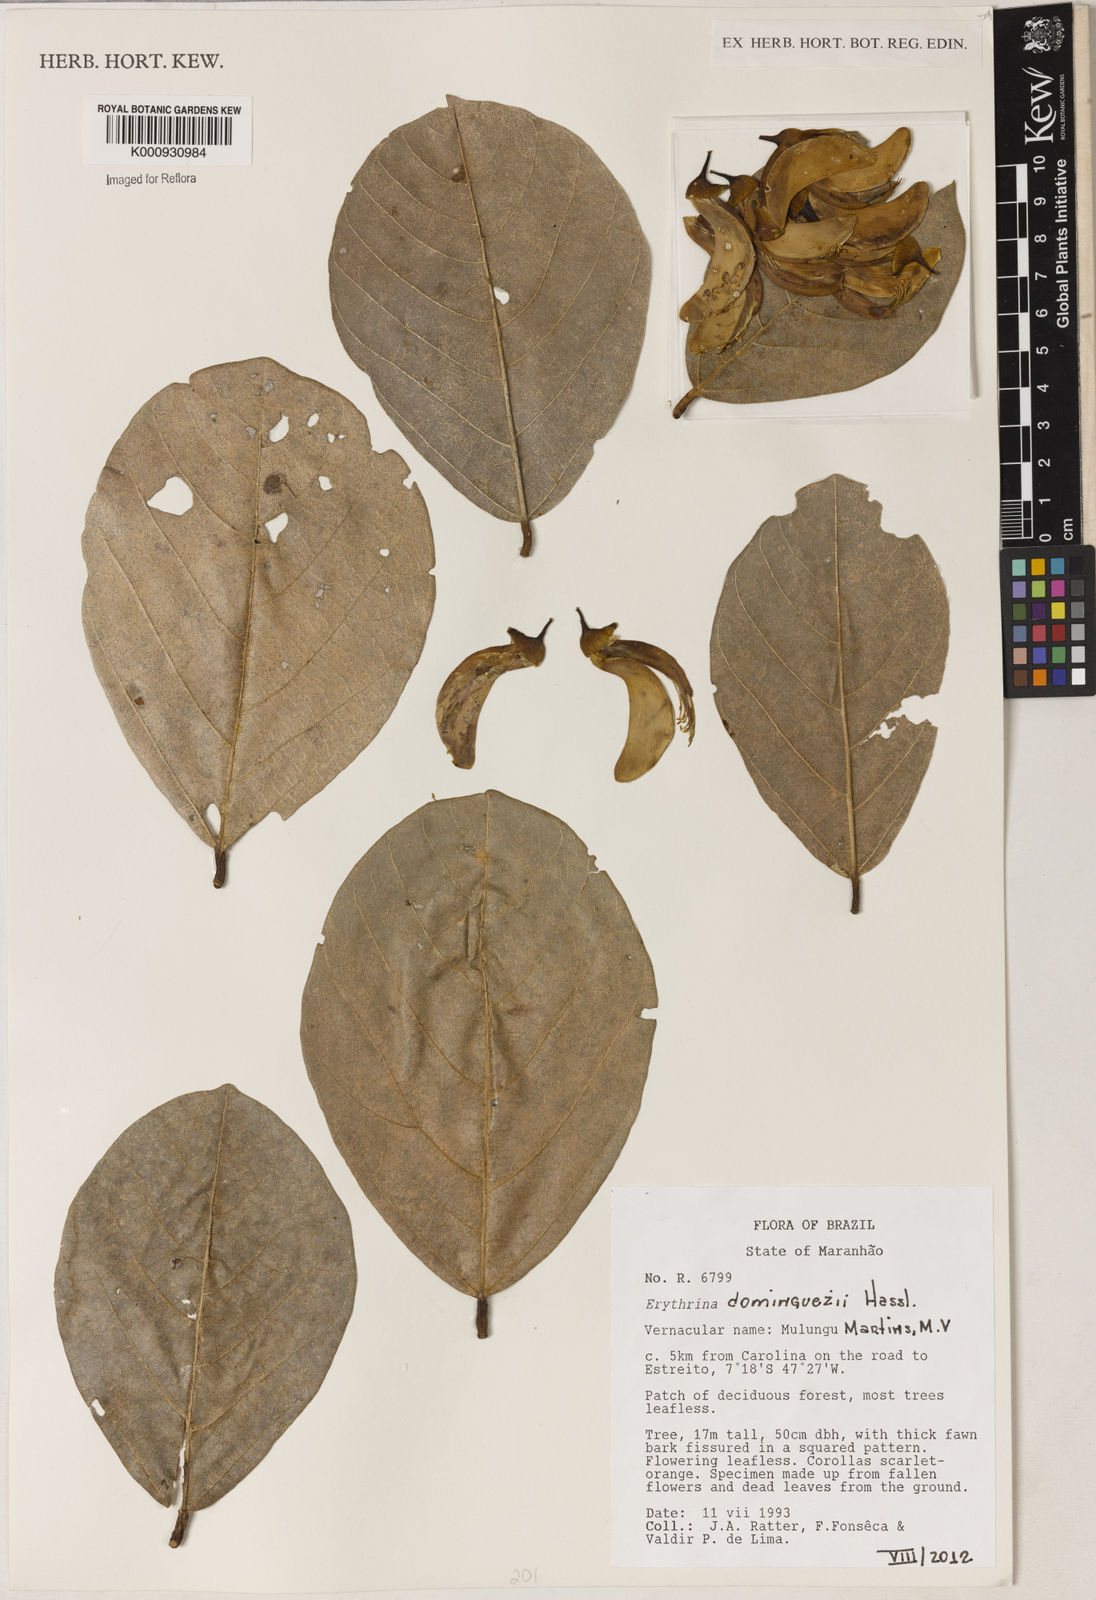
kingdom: Plantae
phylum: Tracheophyta
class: Magnoliopsida
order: Fabales
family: Fabaceae
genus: Erythrina
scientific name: Erythrina mulungu
